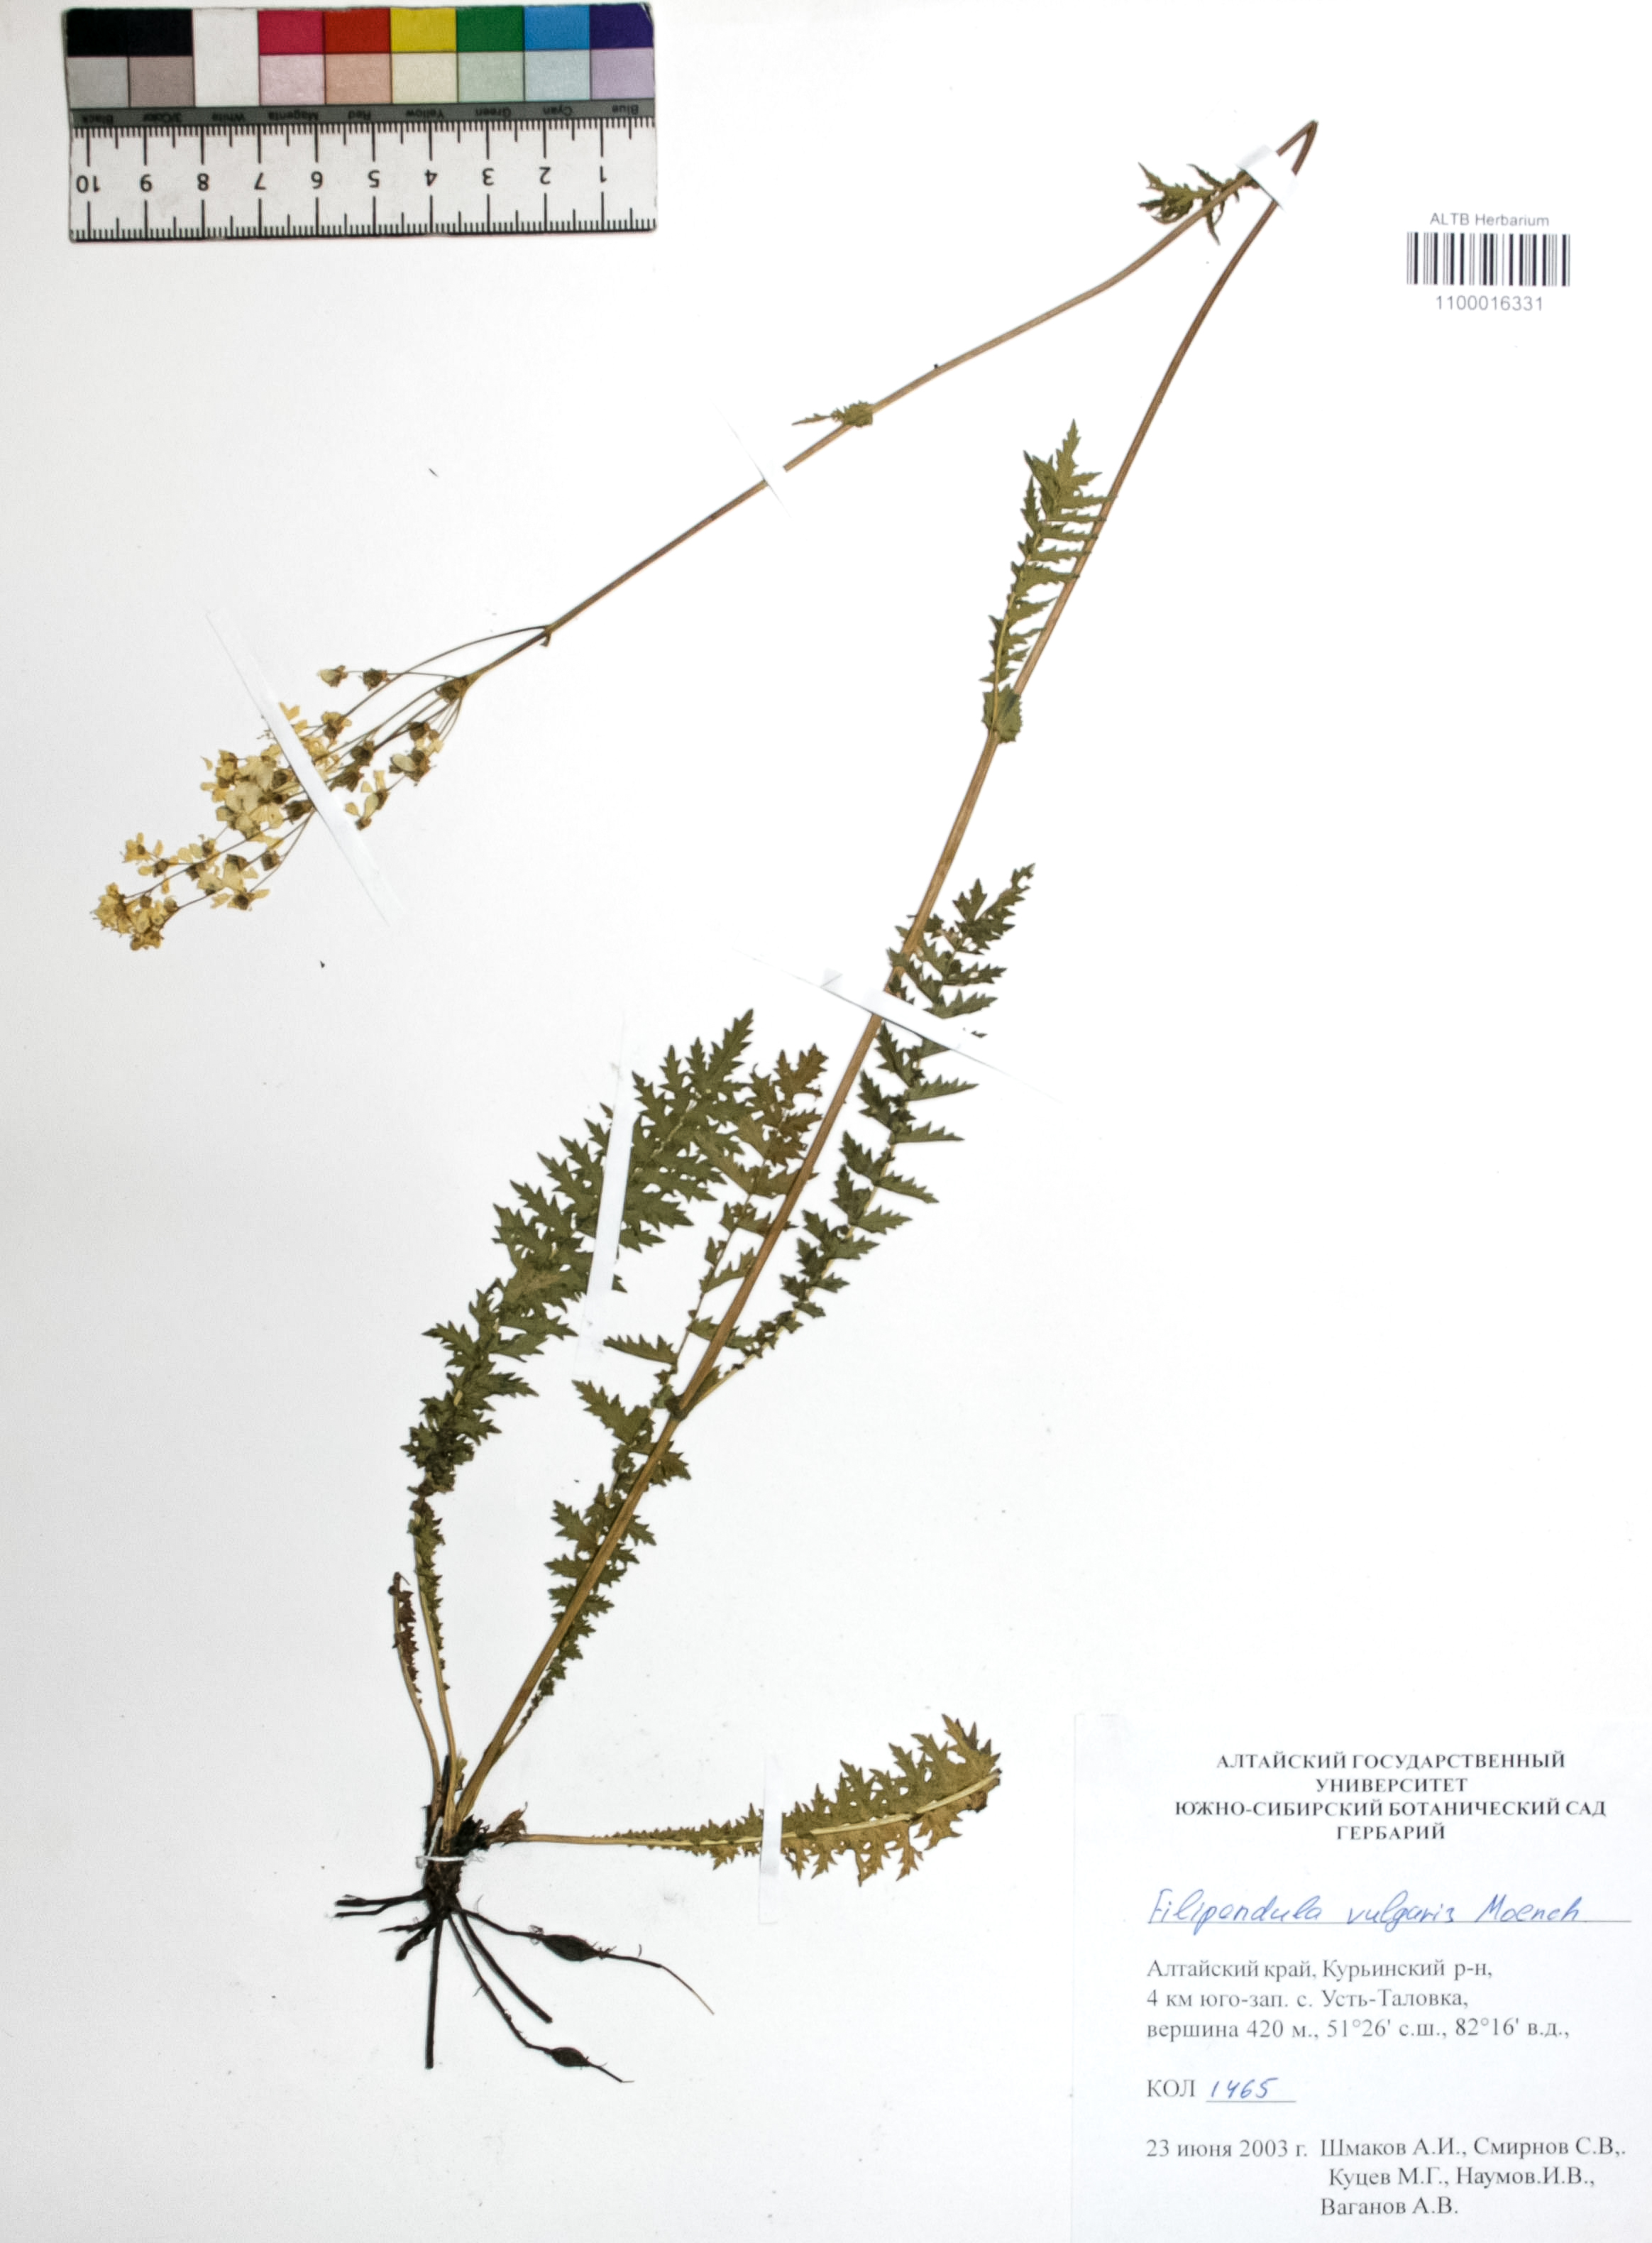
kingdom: Plantae
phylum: Tracheophyta
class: Magnoliopsida
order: Rosales
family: Rosaceae
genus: Filipendula
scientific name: Filipendula vulgaris
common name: Dropwort
